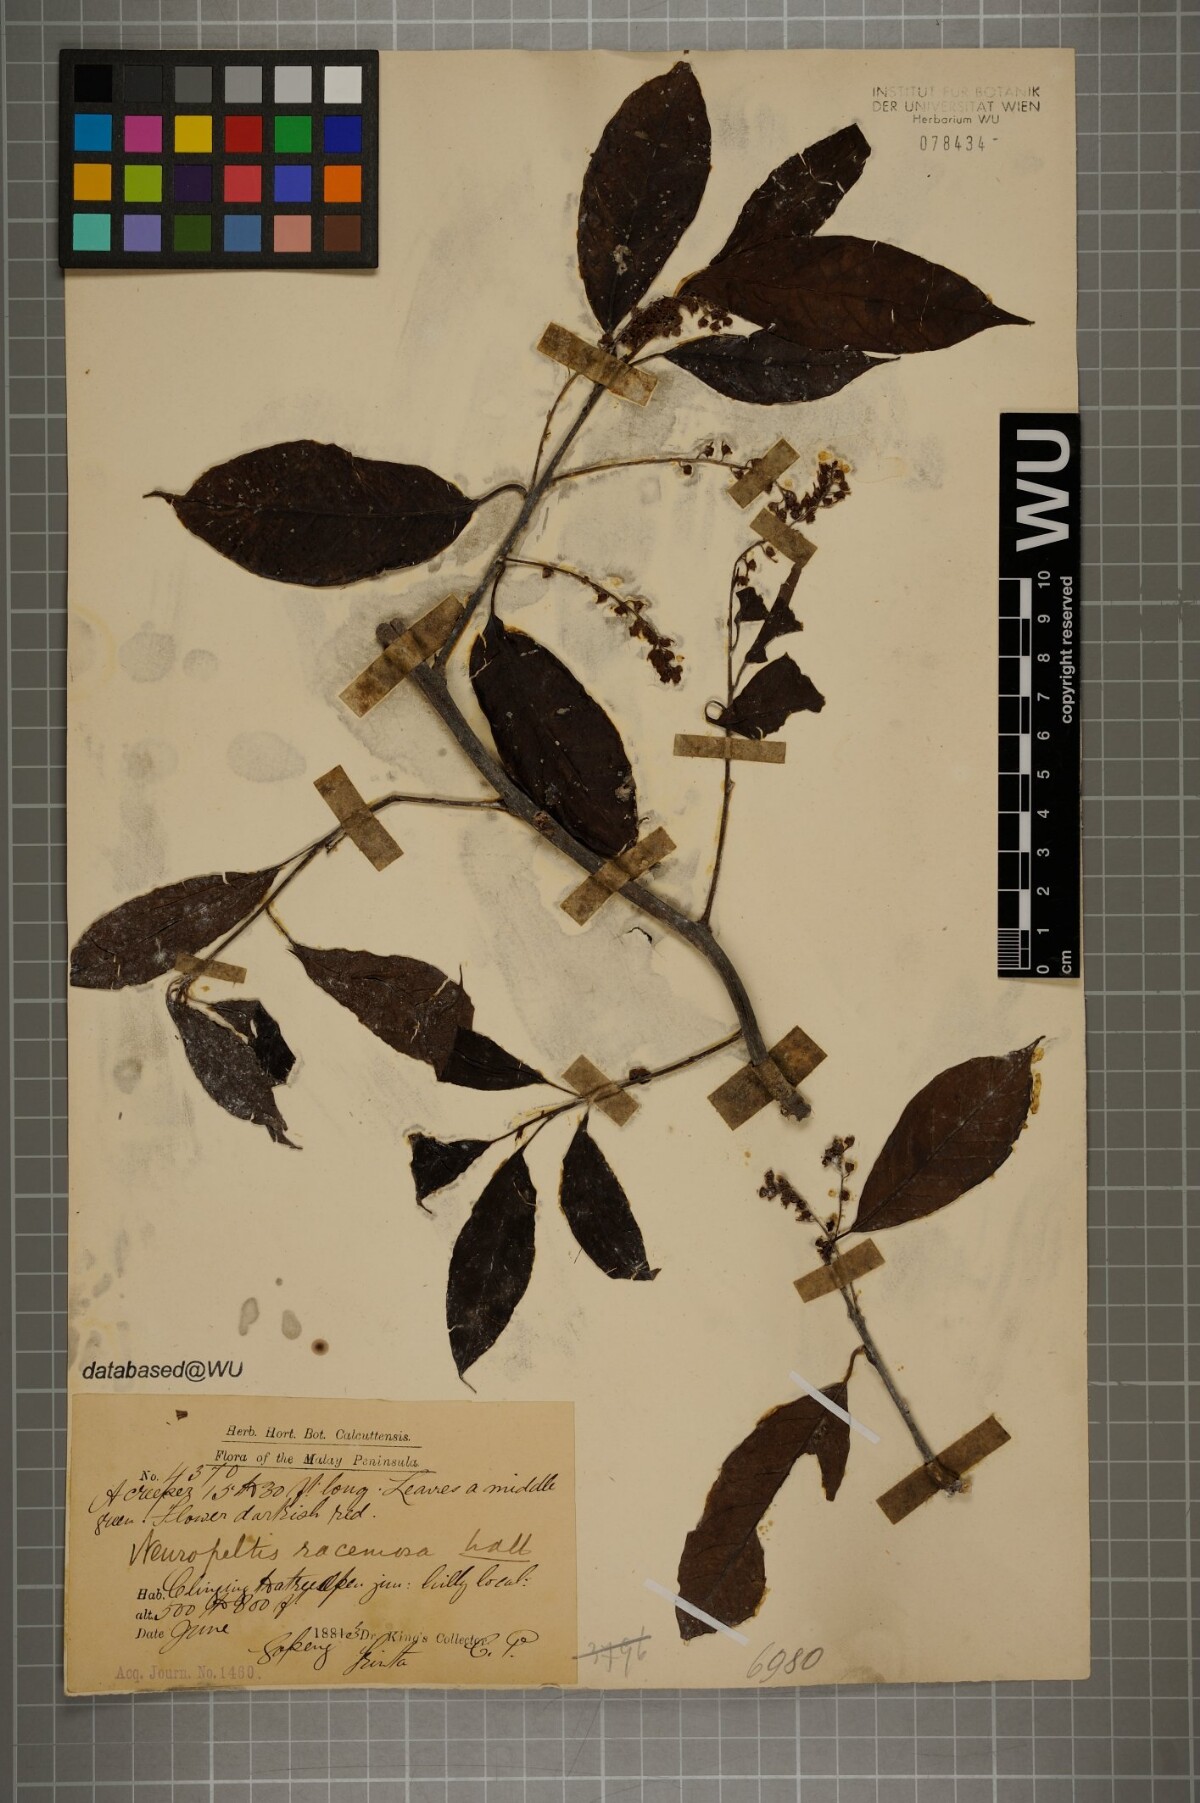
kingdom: Plantae
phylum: Tracheophyta
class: Magnoliopsida
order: Solanales
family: Convolvulaceae
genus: Neuropeltis
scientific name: Neuropeltis racemosa
